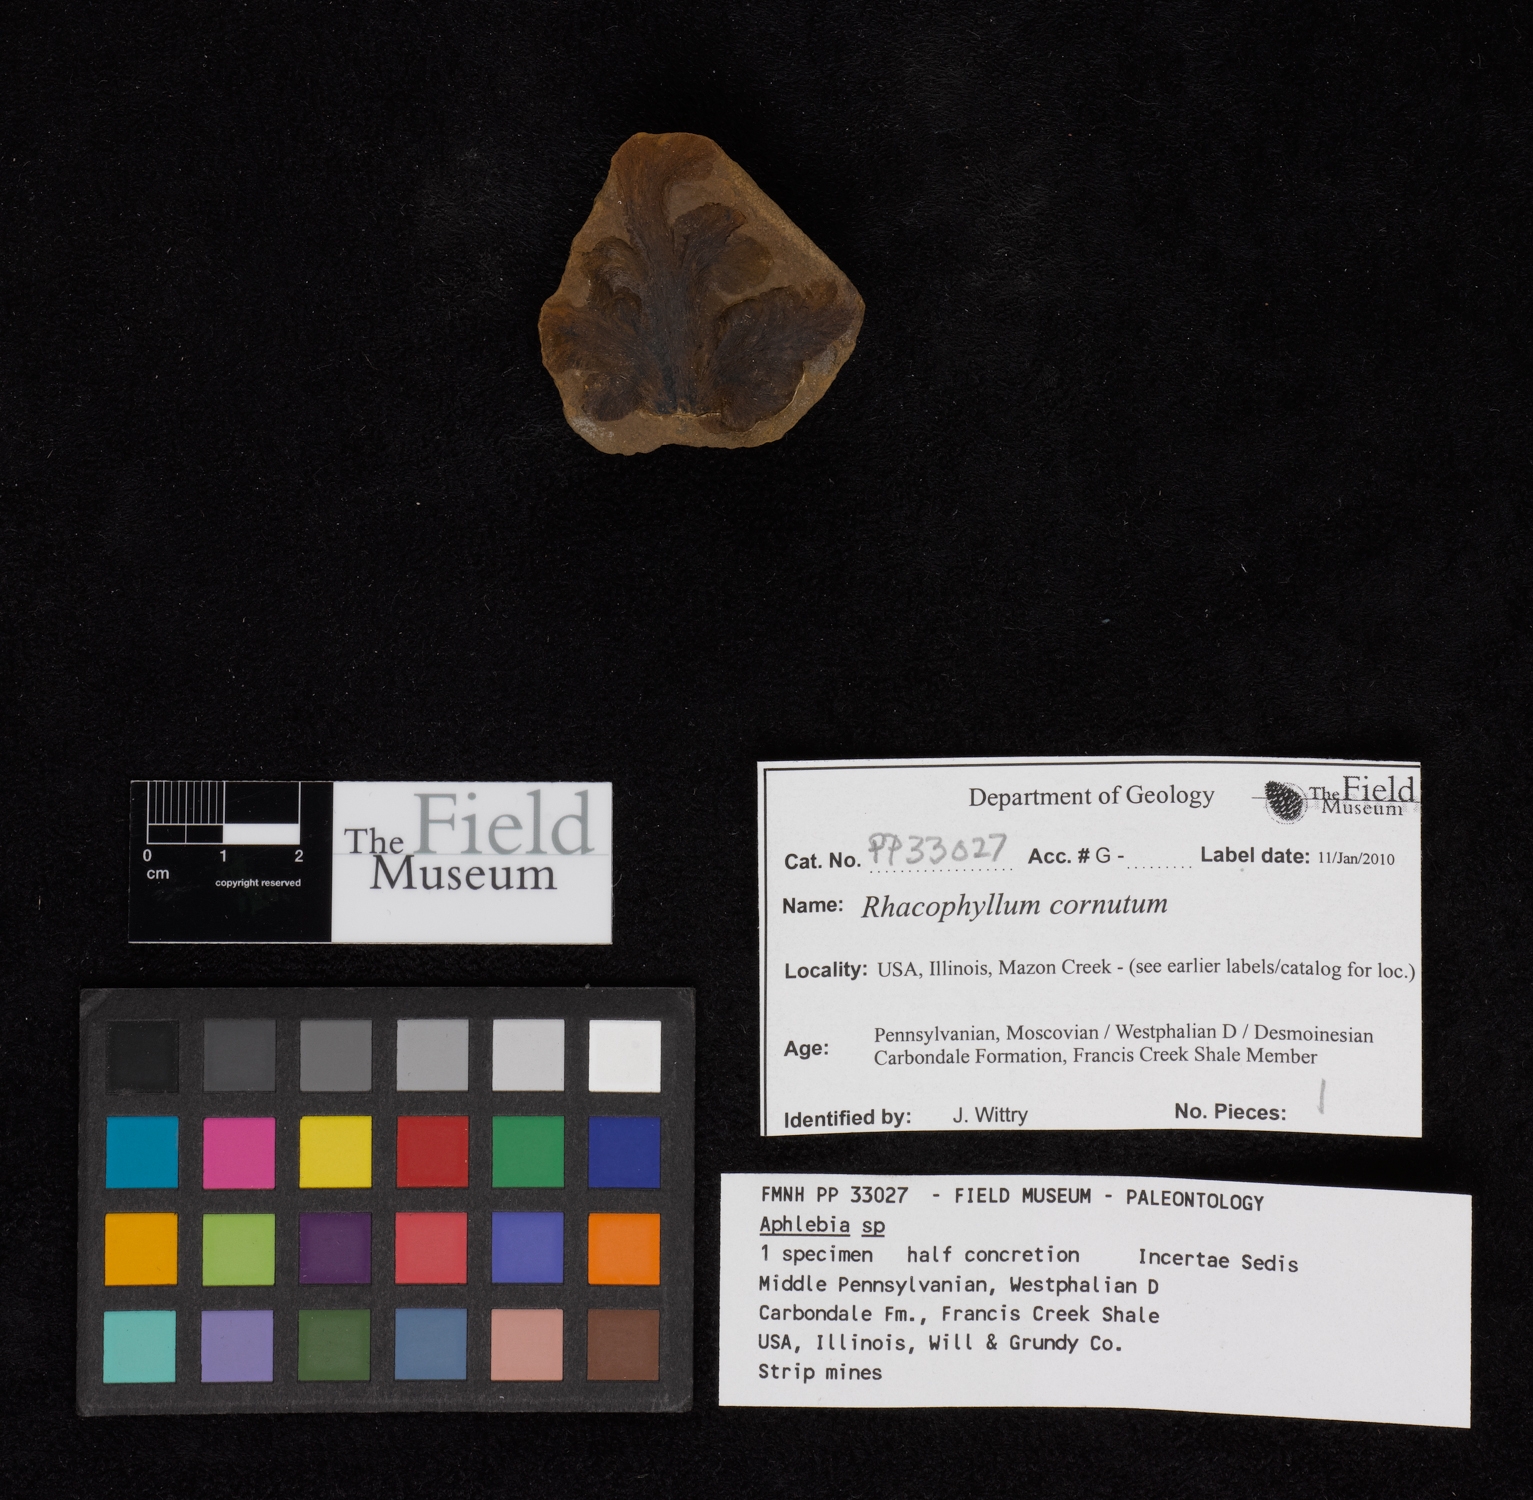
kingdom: Plantae
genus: Rhacophyllum
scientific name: Rhacophyllum
